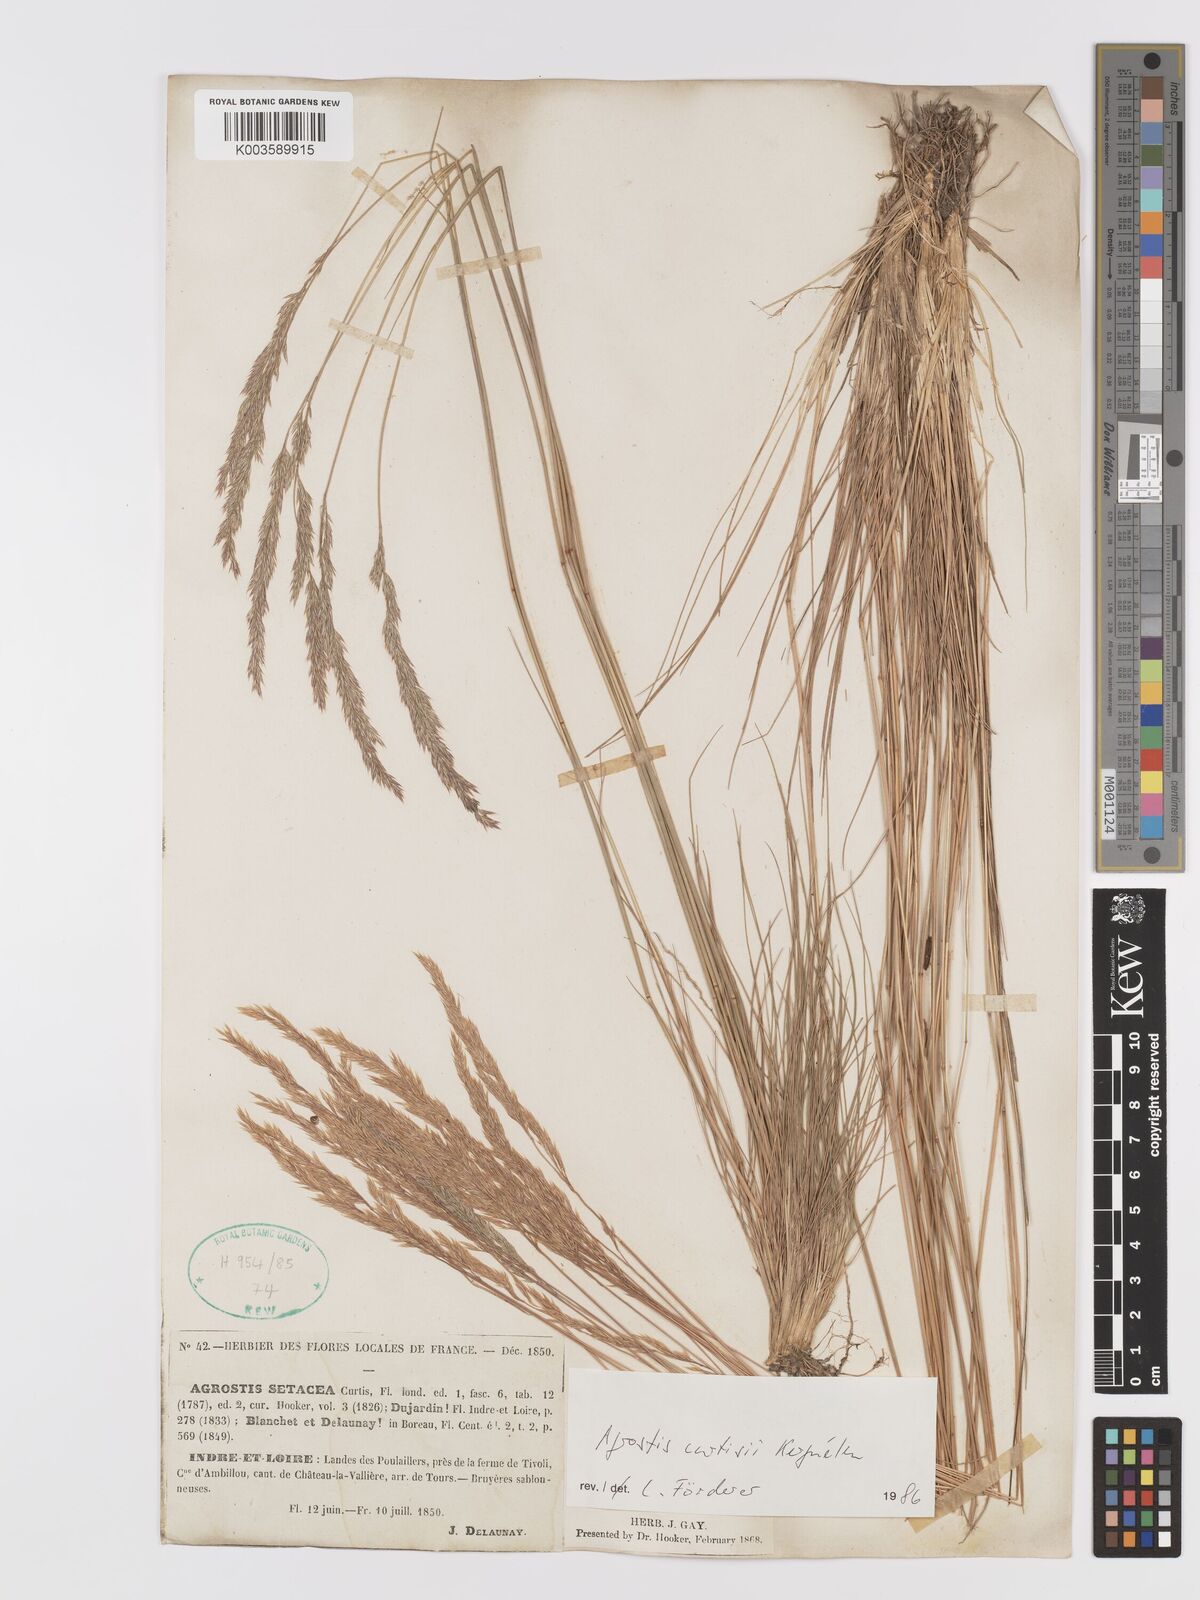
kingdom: Plantae
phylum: Tracheophyta
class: Liliopsida
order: Poales
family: Poaceae
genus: Alpagrostis
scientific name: Alpagrostis setacea
